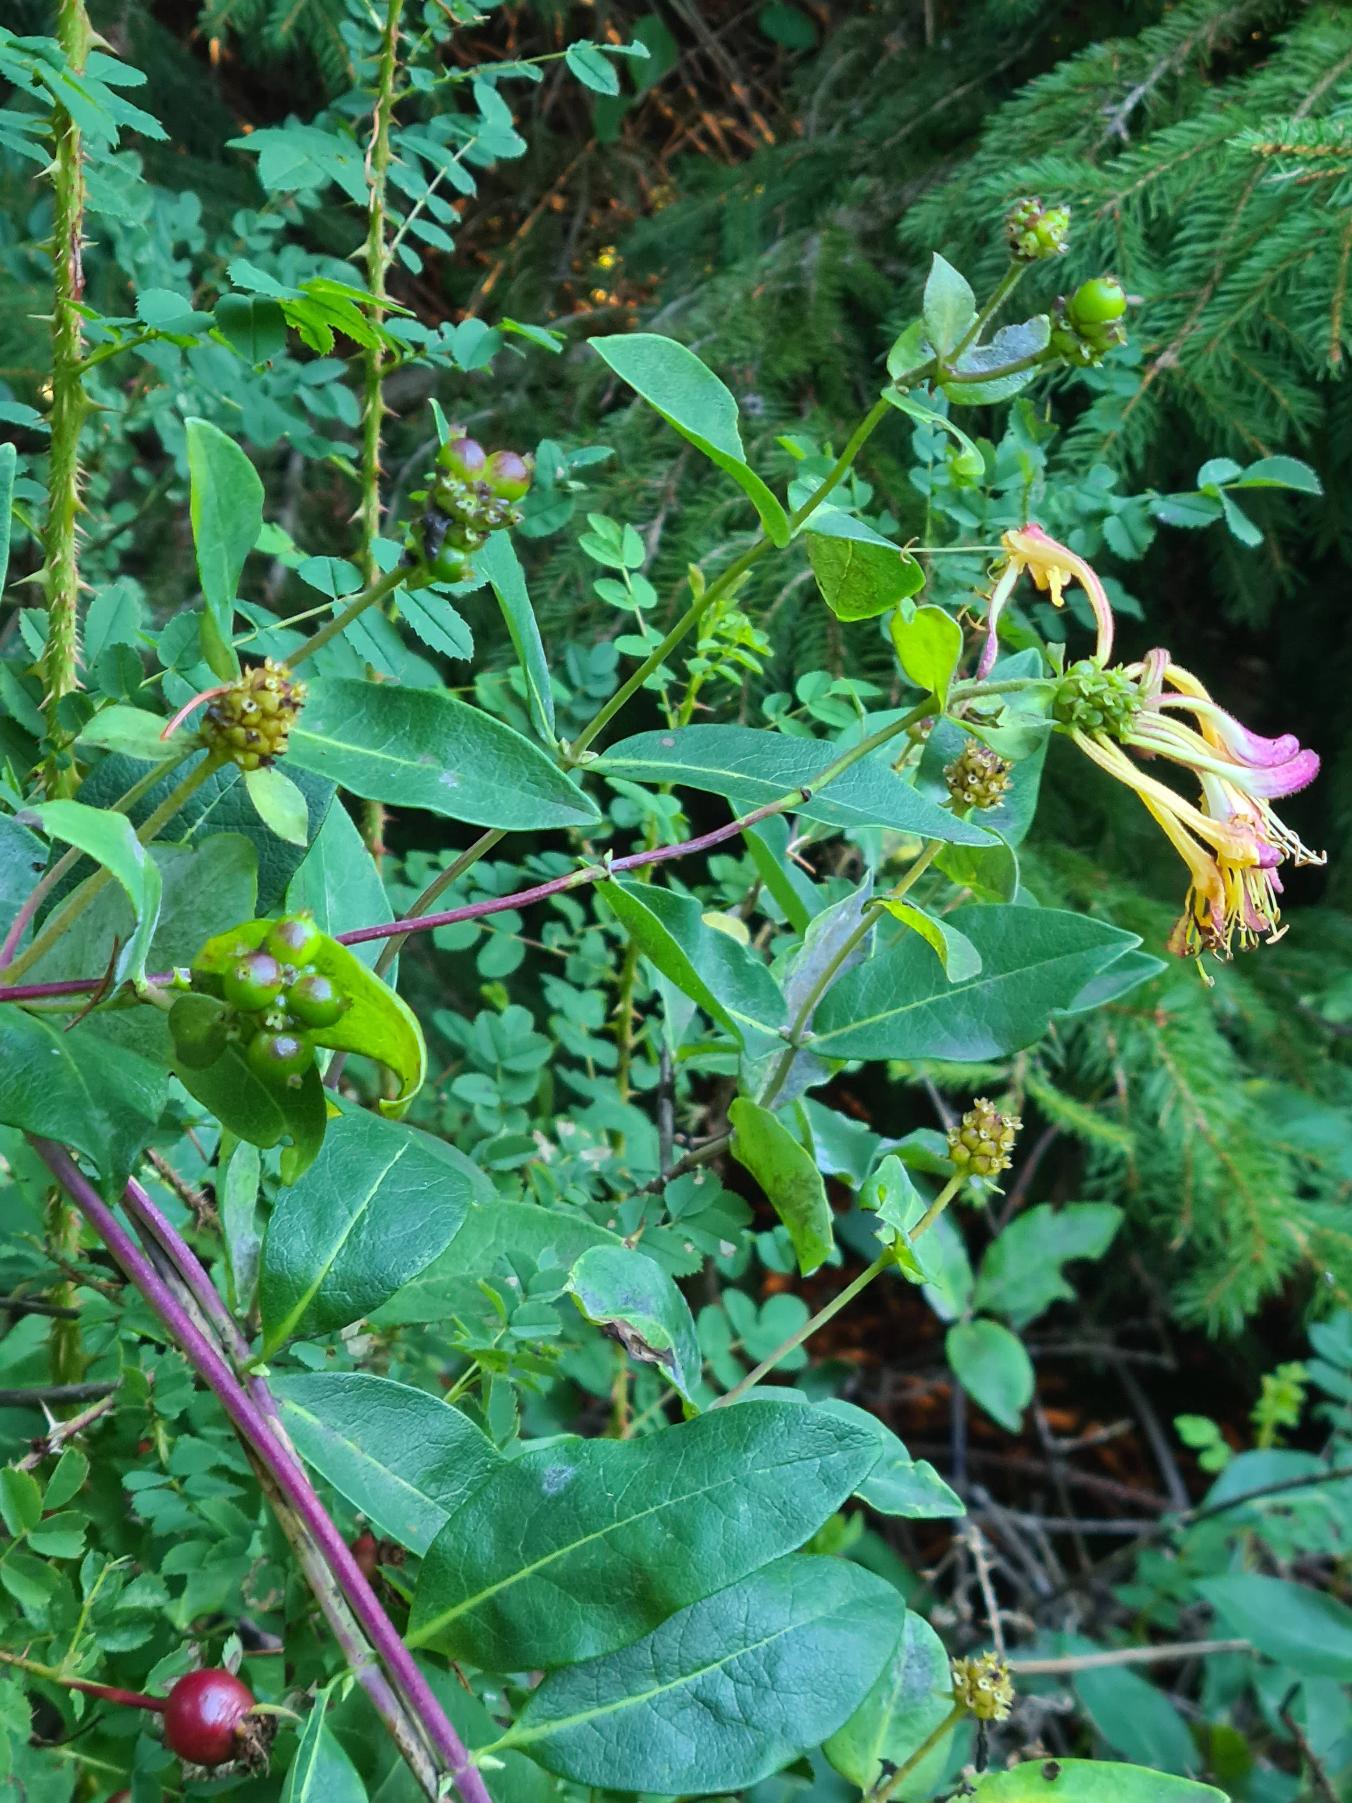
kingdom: Plantae
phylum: Tracheophyta
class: Magnoliopsida
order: Dipsacales
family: Caprifoliaceae
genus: Lonicera
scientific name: Lonicera periclymenum
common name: Almindelig gedeblad
